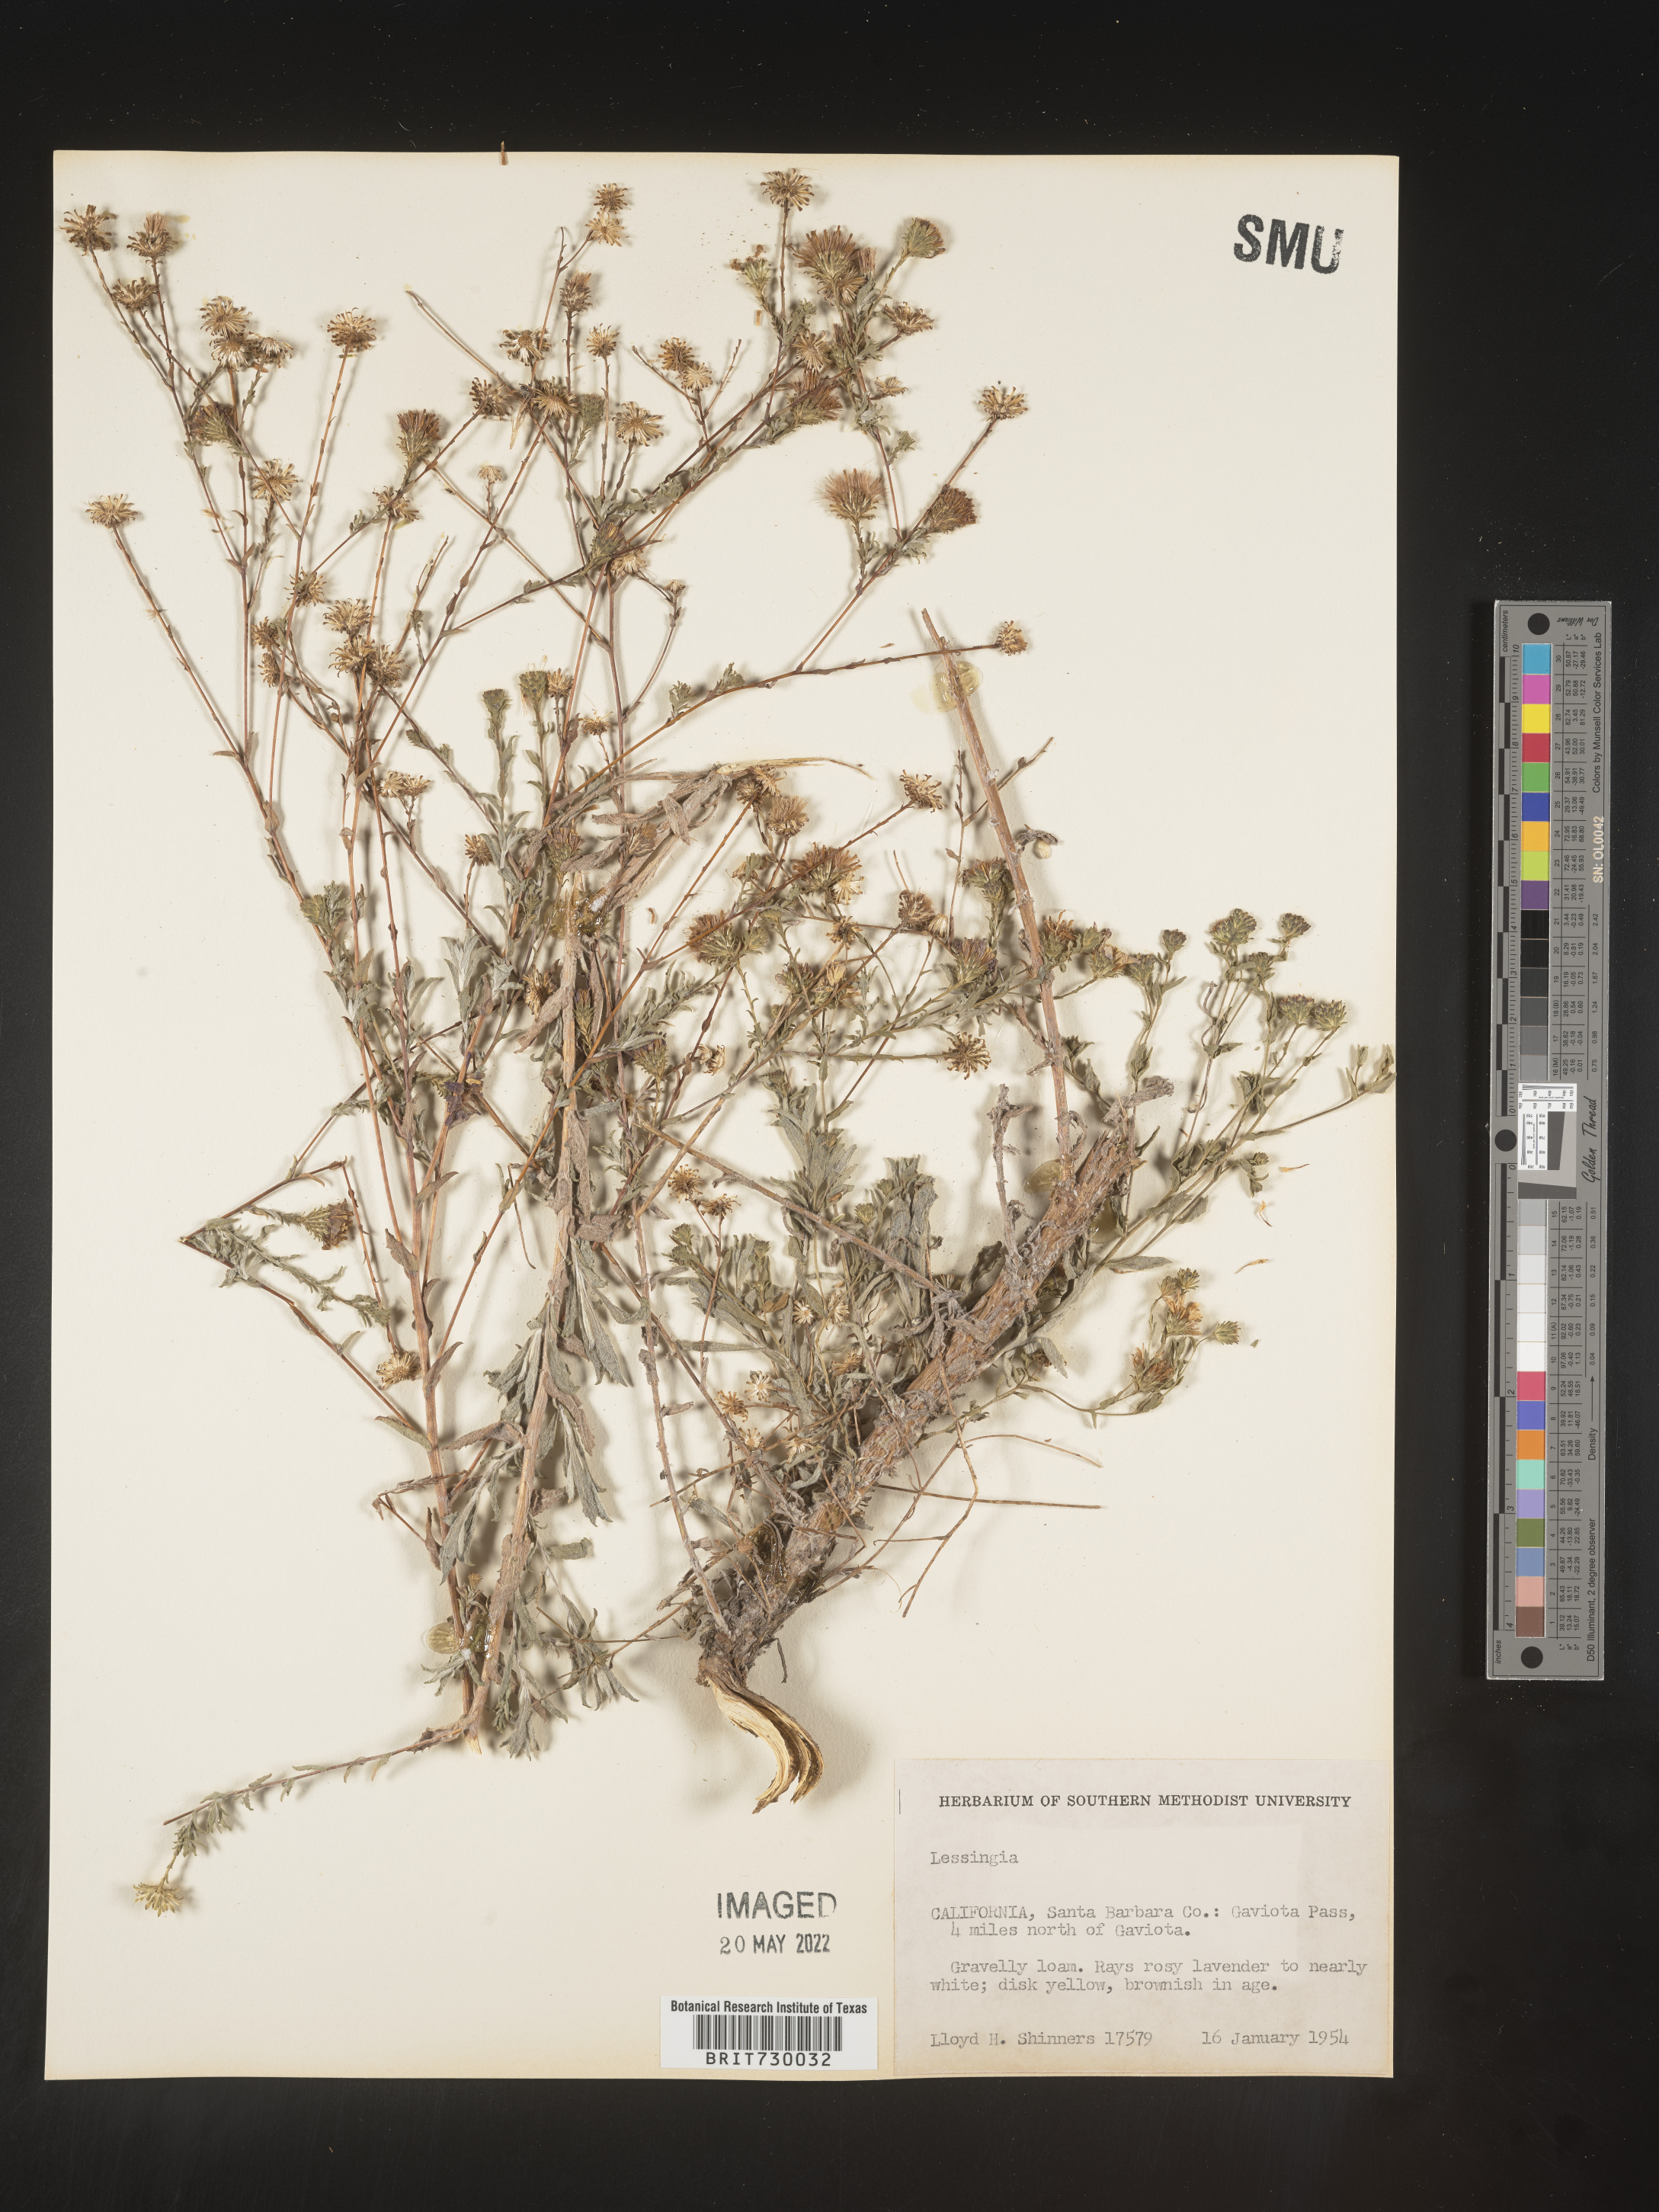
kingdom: Plantae
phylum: Tracheophyta
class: Magnoliopsida
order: Asterales
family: Asteraceae
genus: Lessingia
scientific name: Lessingia
